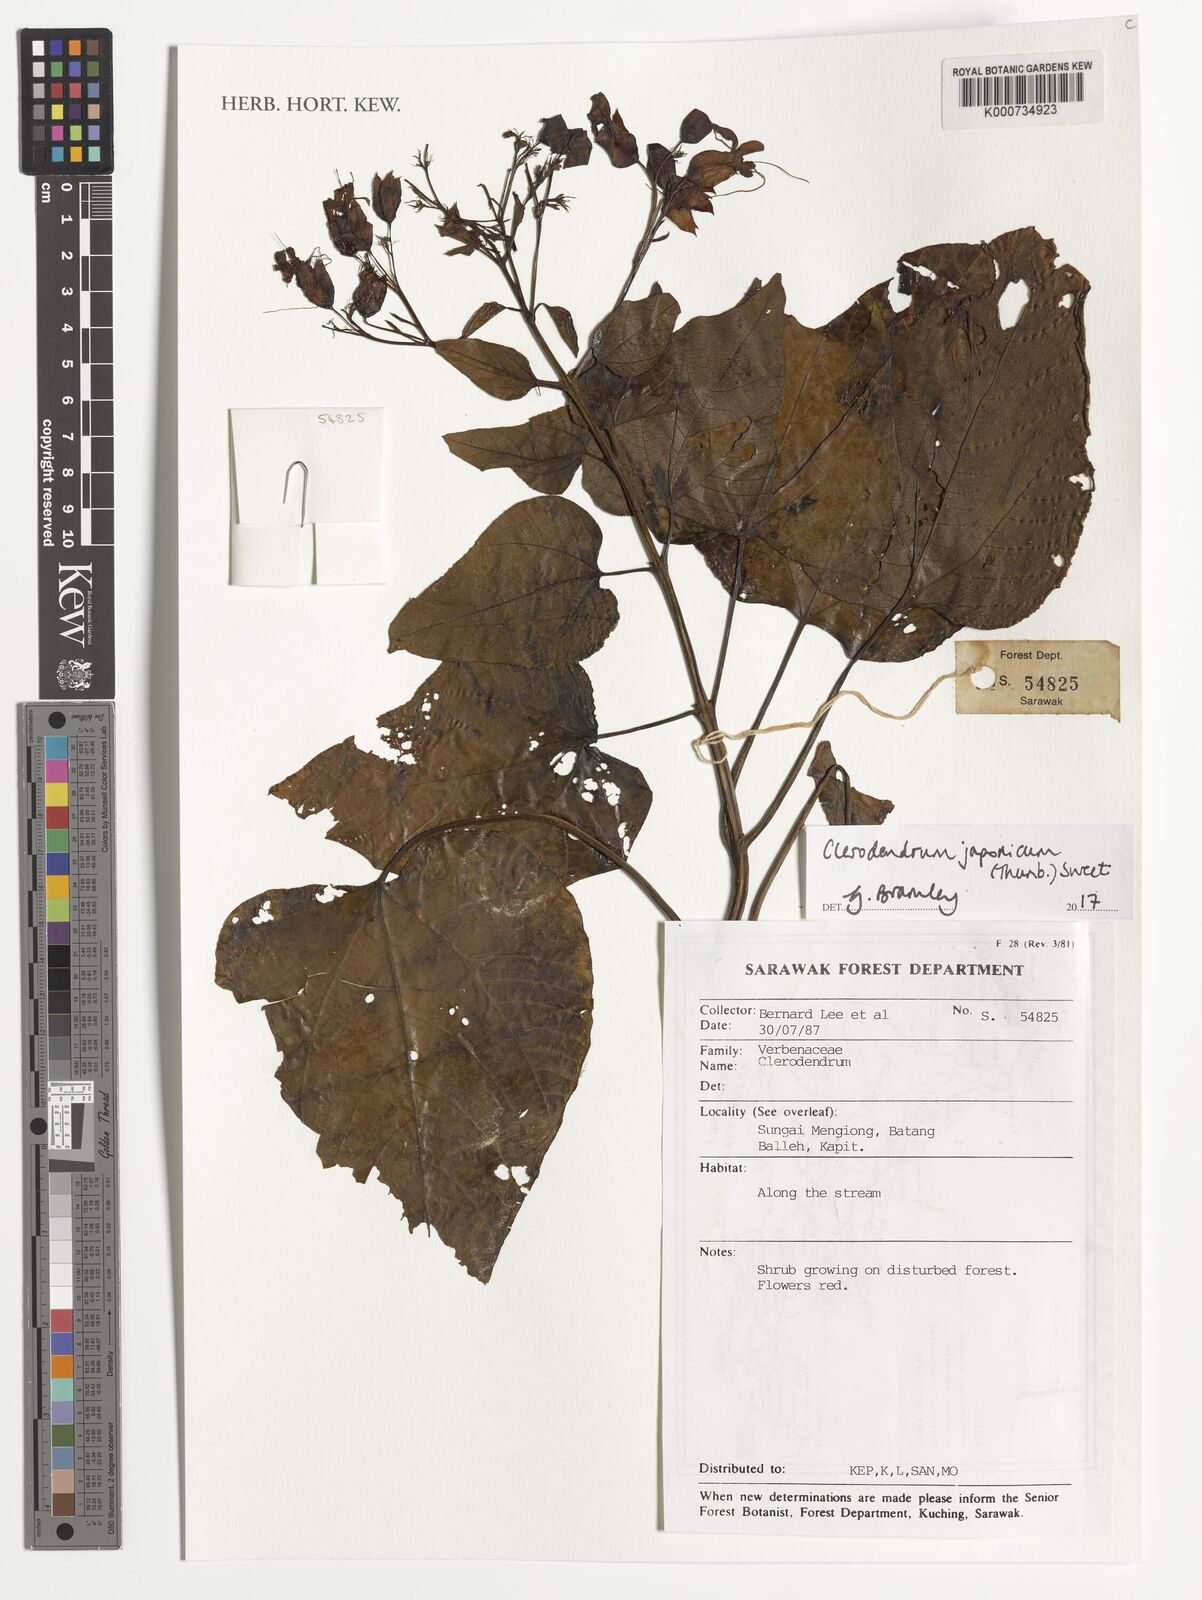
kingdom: Plantae
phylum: Tracheophyta
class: Magnoliopsida
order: Lamiales
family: Lamiaceae
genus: Clerodendrum
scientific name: Clerodendrum japonicum
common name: Japanese glorybower
